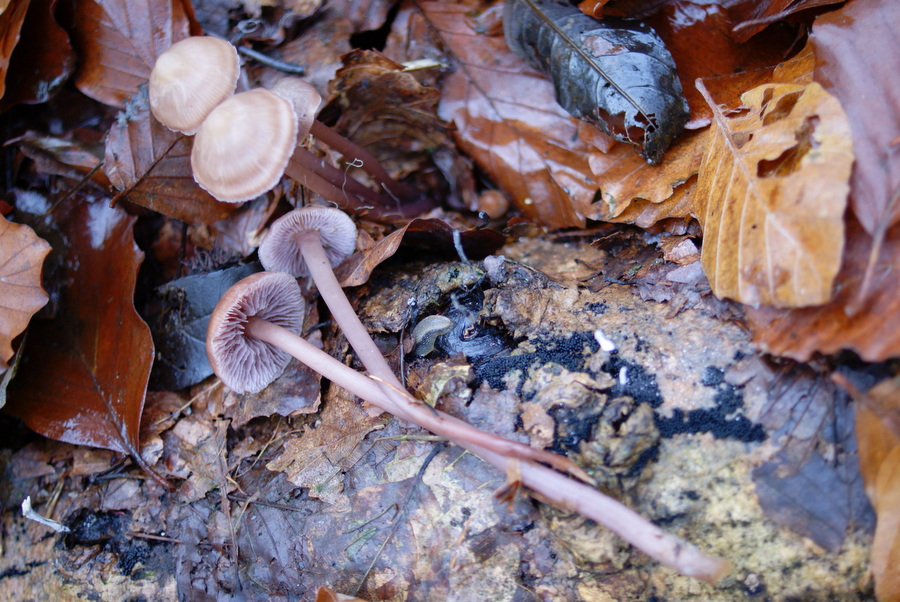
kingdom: Fungi
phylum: Basidiomycota
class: Agaricomycetes
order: Agaricales
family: Mycenaceae
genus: Prunulus
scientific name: Prunulus diosmus
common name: tobaks-huesvamp
